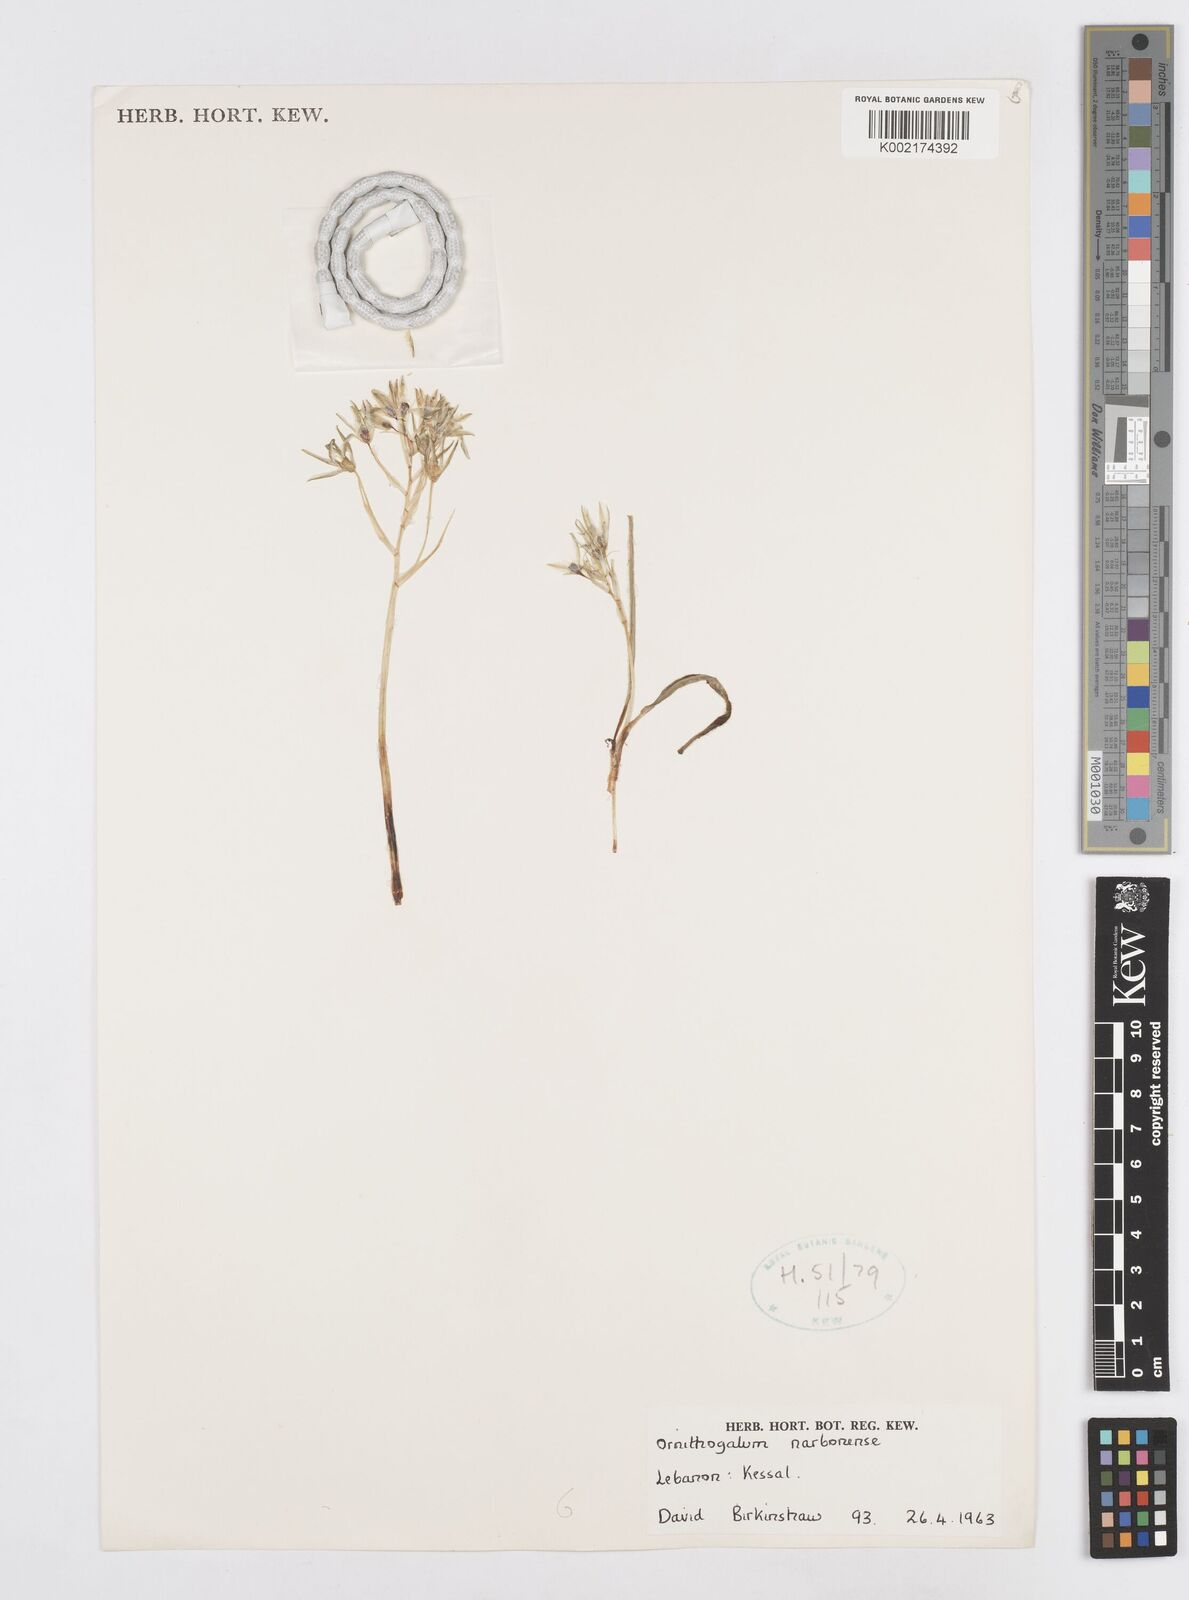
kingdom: Plantae
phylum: Tracheophyta
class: Liliopsida
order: Asparagales
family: Asparagaceae
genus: Ornithogalum
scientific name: Ornithogalum narbonense
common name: Bath-asparagus
